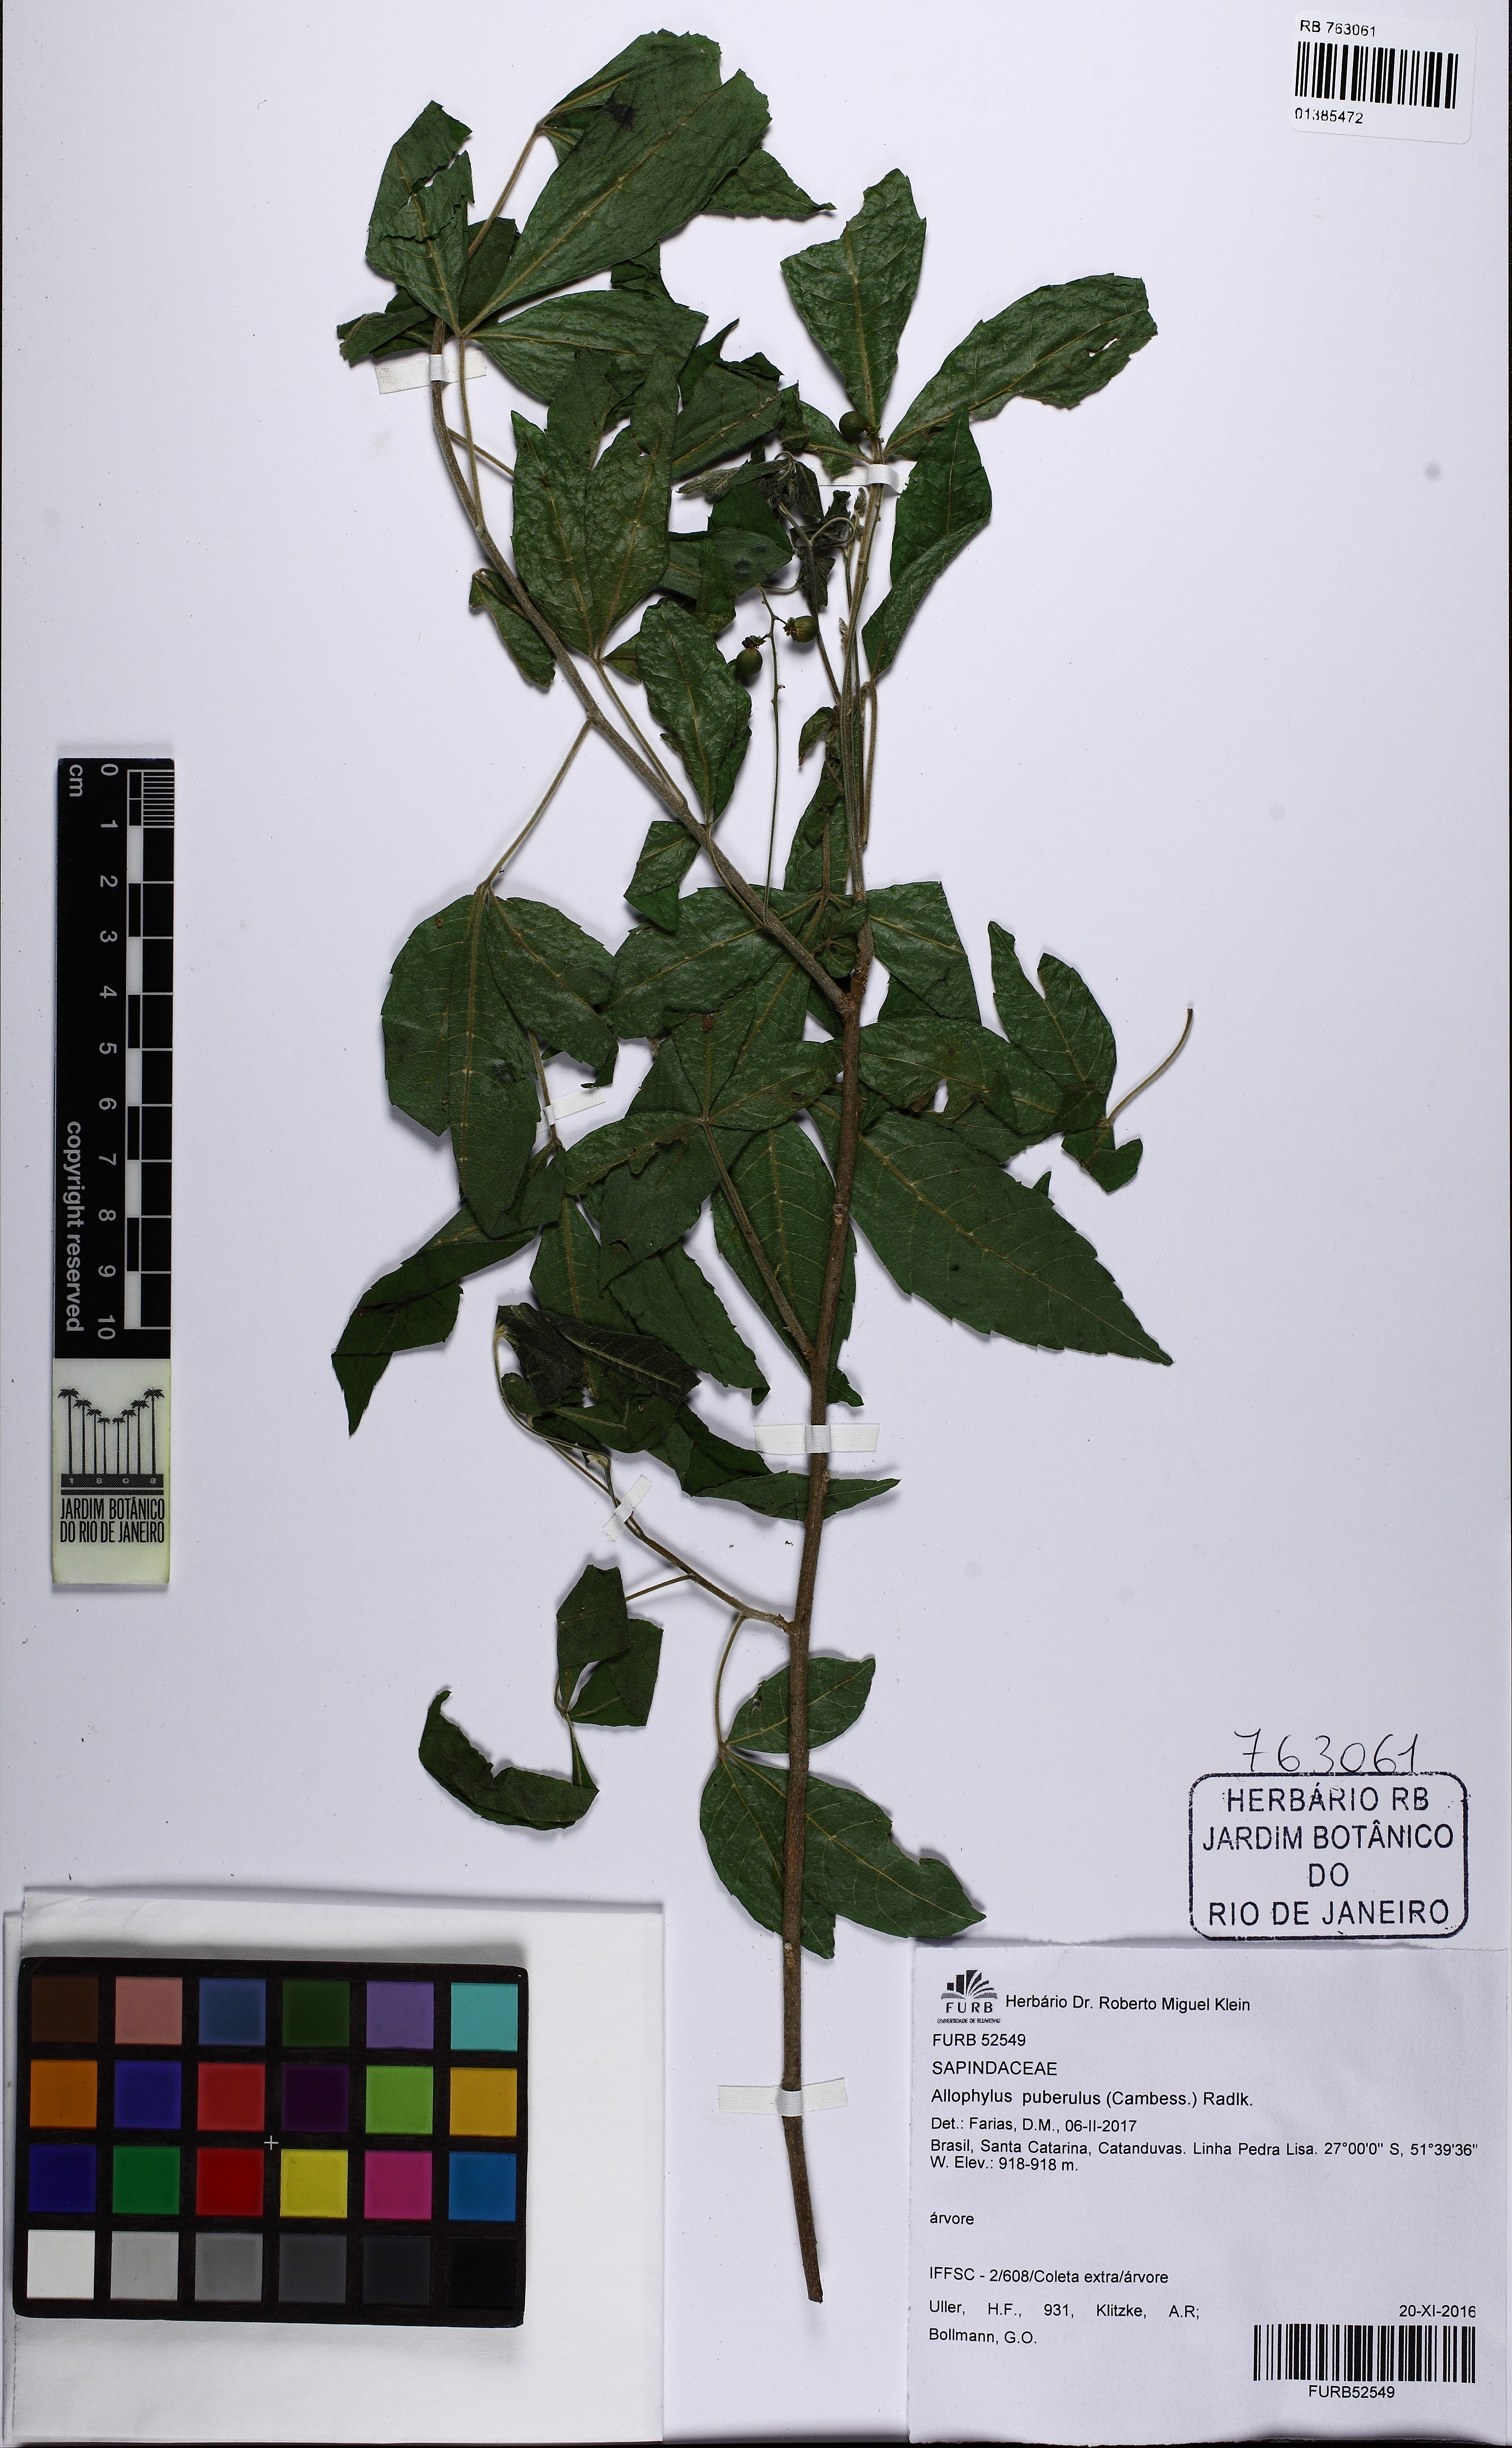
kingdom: Plantae
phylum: Tracheophyta
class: Magnoliopsida
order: Sapindales
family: Sapindaceae
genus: Allophylus
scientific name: Allophylus puberulus
